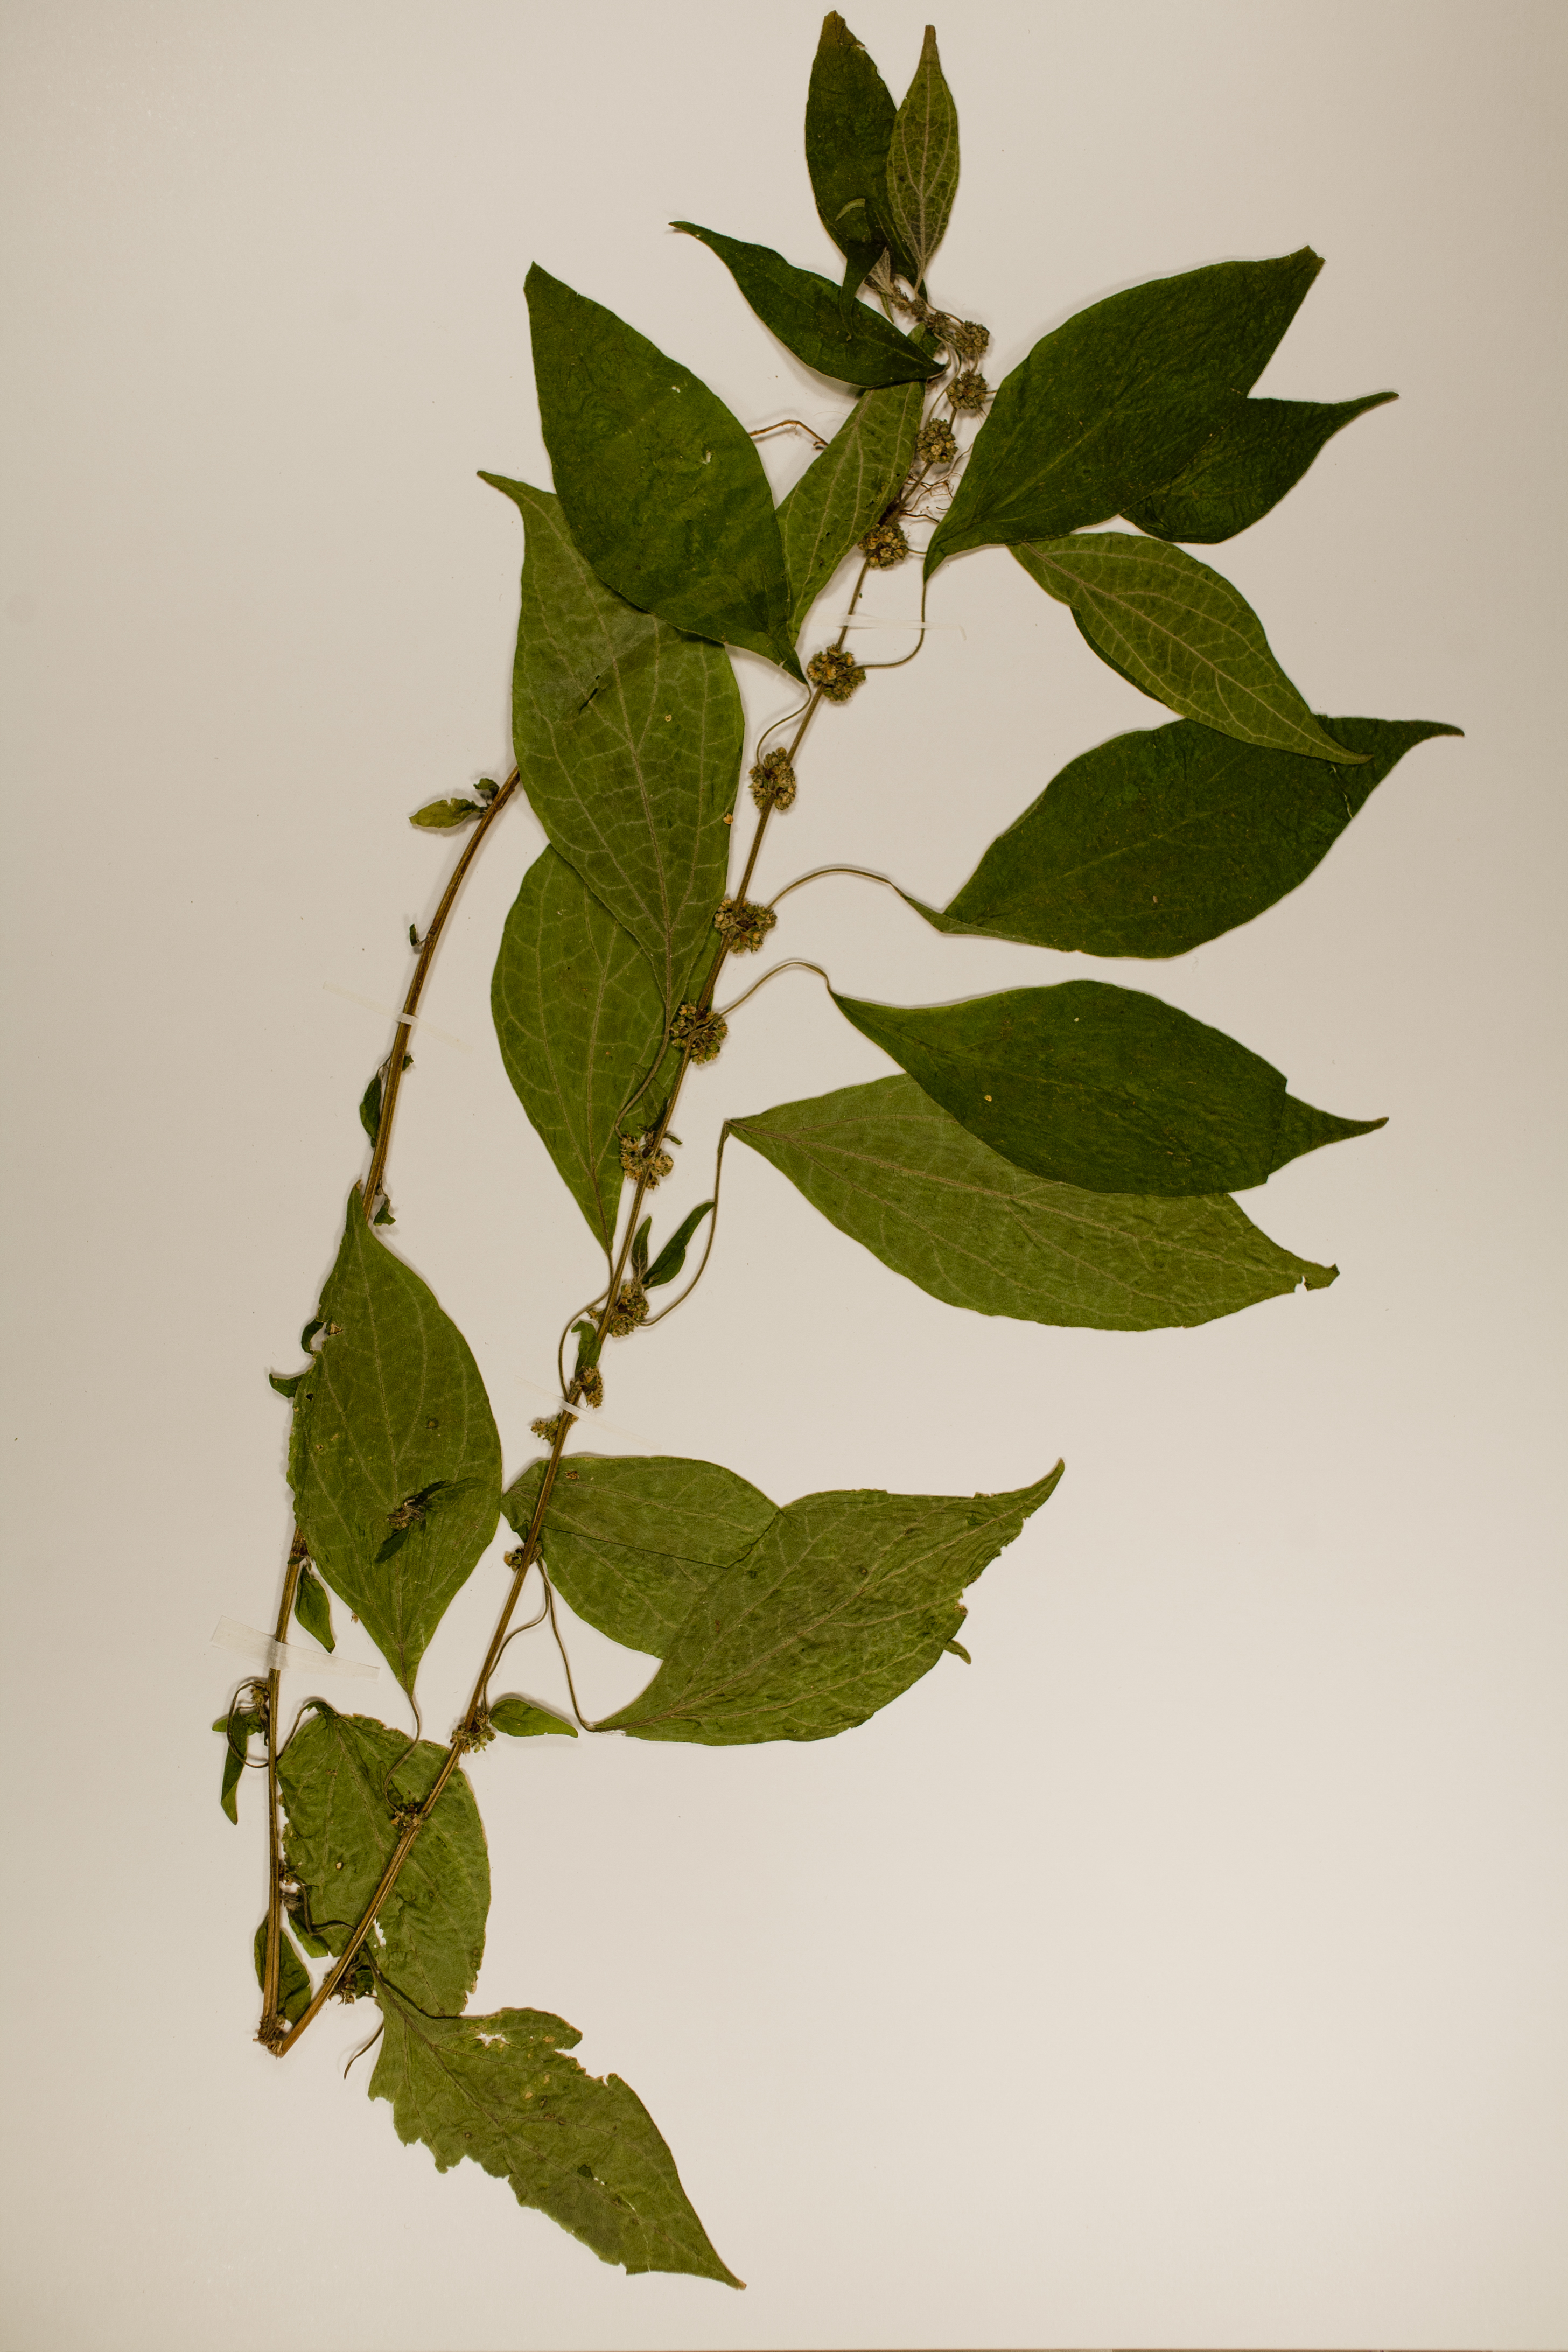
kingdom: Plantae
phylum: Tracheophyta
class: Magnoliopsida
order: Rosales
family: Urticaceae
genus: Parietaria
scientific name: Parietaria officinalis
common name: Eastern pellitory-of-the-wall
